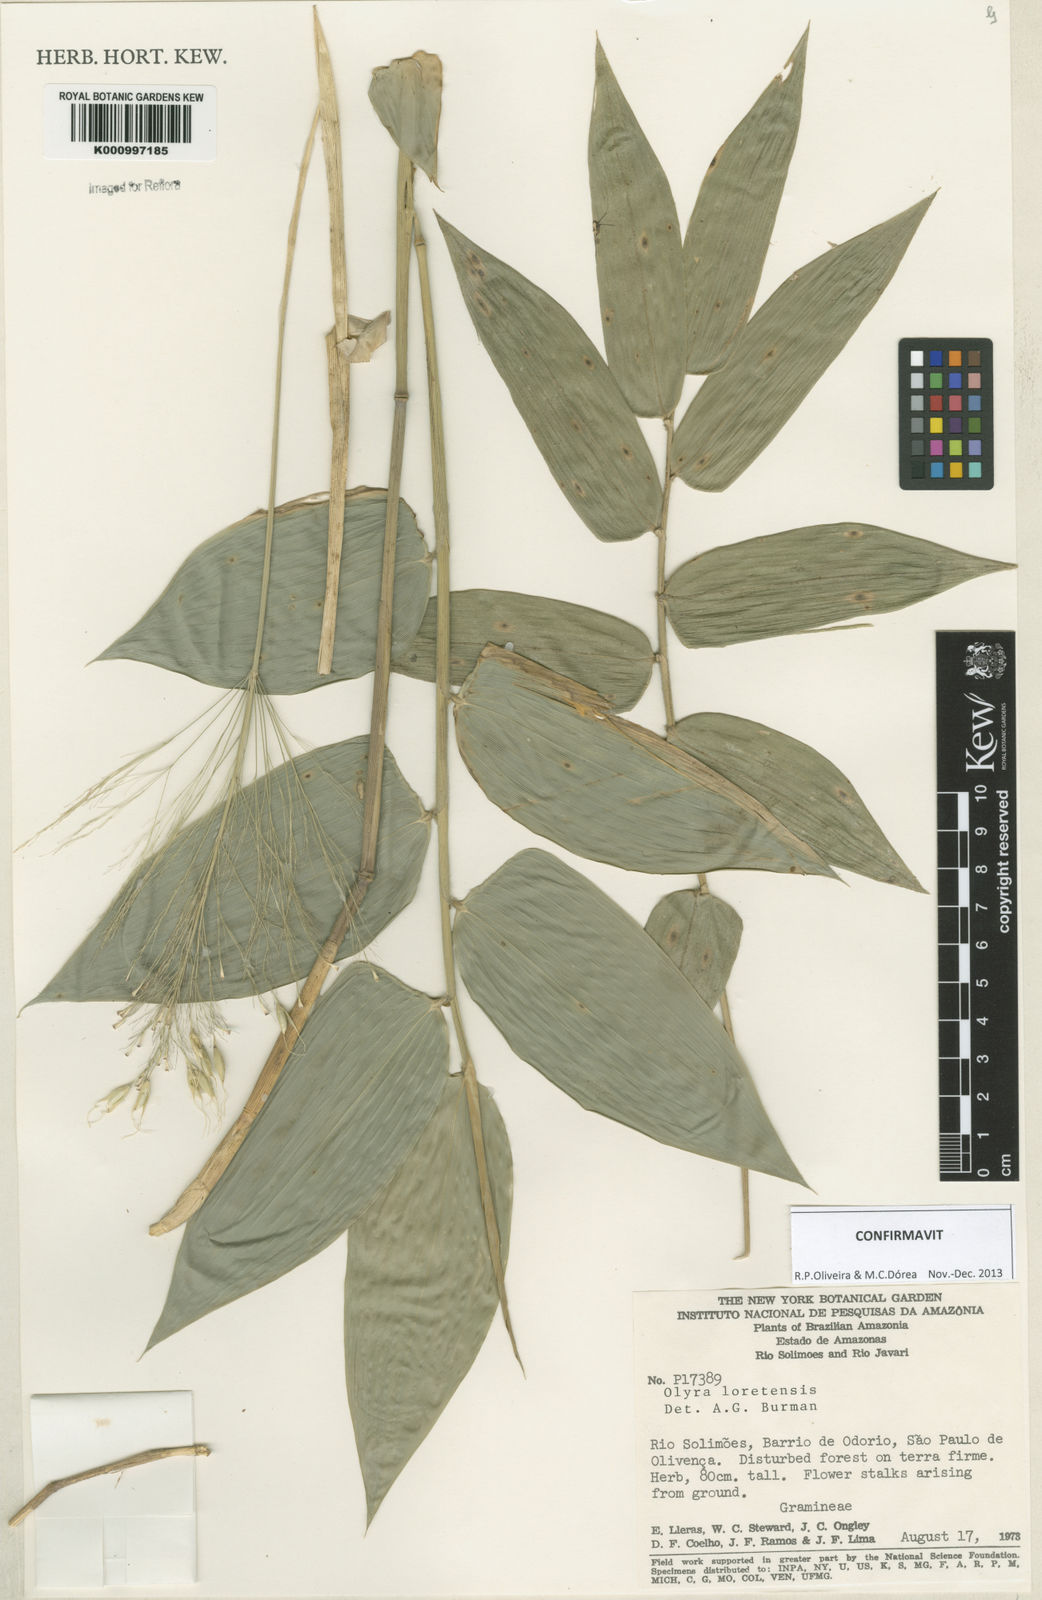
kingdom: Plantae
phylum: Tracheophyta
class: Liliopsida
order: Poales
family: Poaceae
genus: Olyra
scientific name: Olyra loretensis
